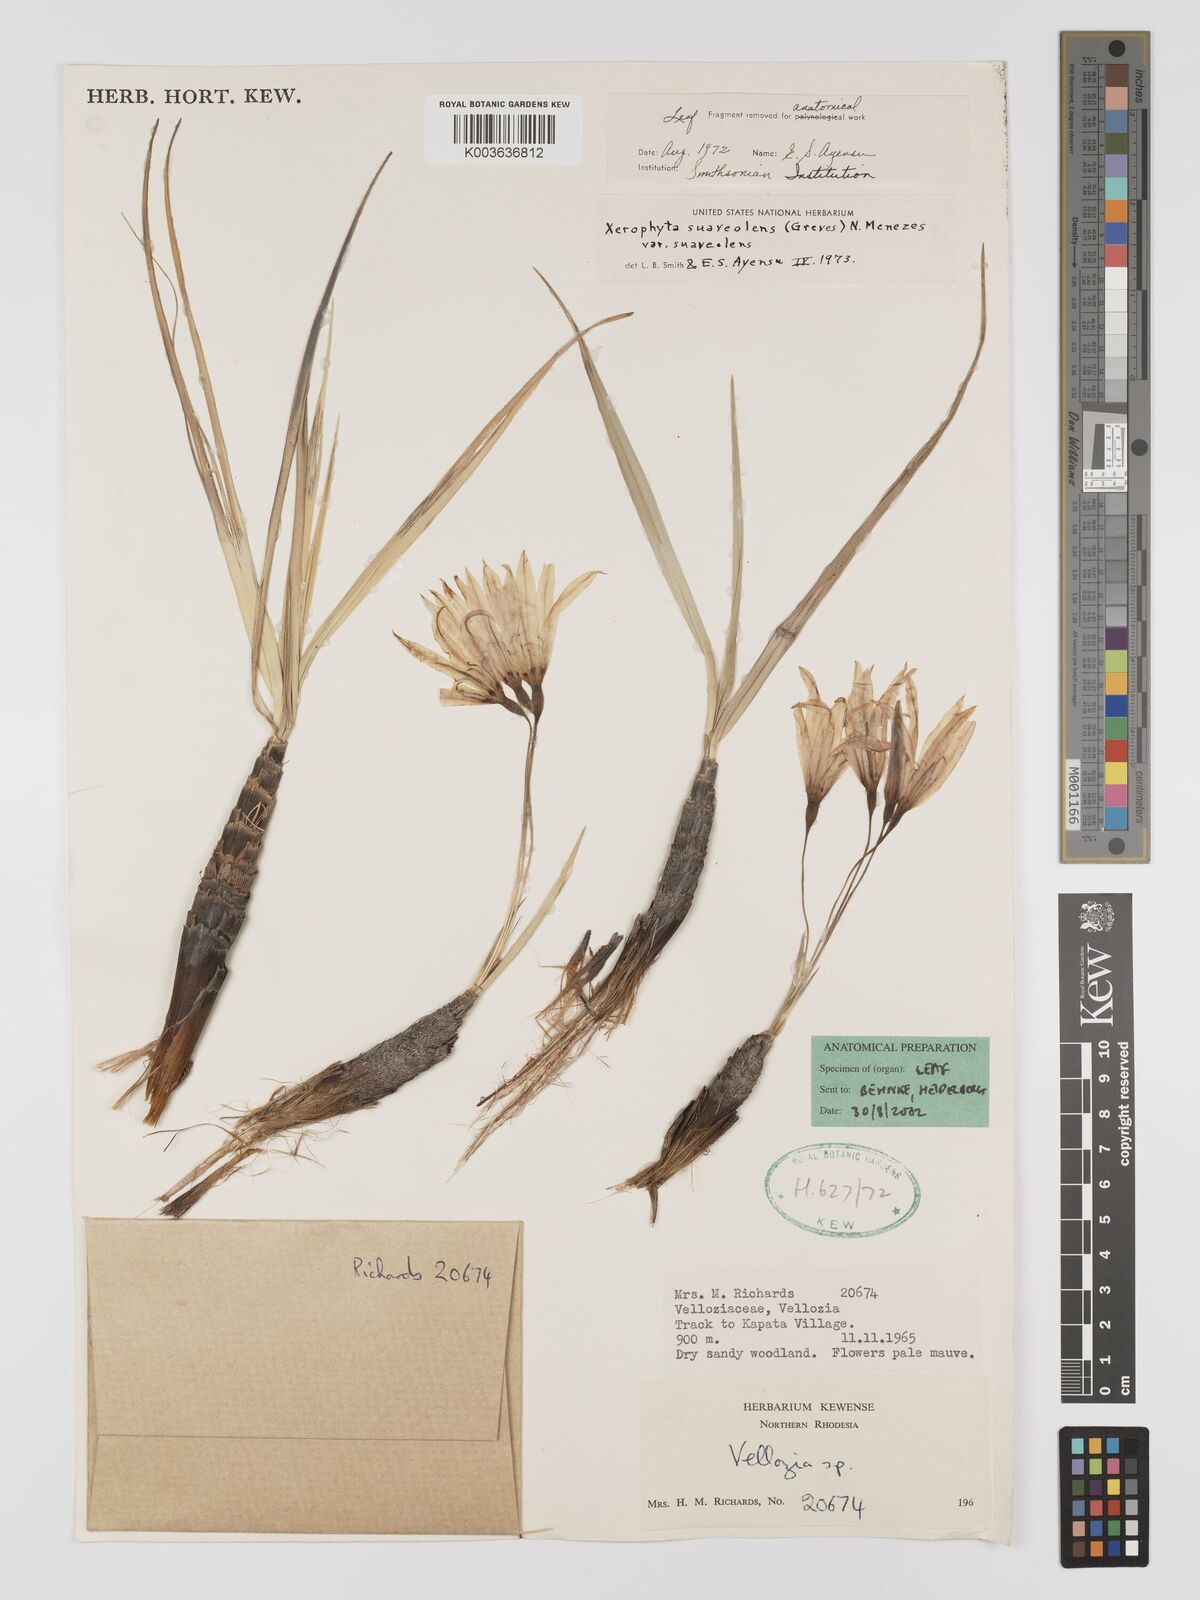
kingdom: Plantae
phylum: Tracheophyta
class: Liliopsida
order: Pandanales
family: Velloziaceae
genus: Xerophyta
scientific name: Xerophyta suaveolens
